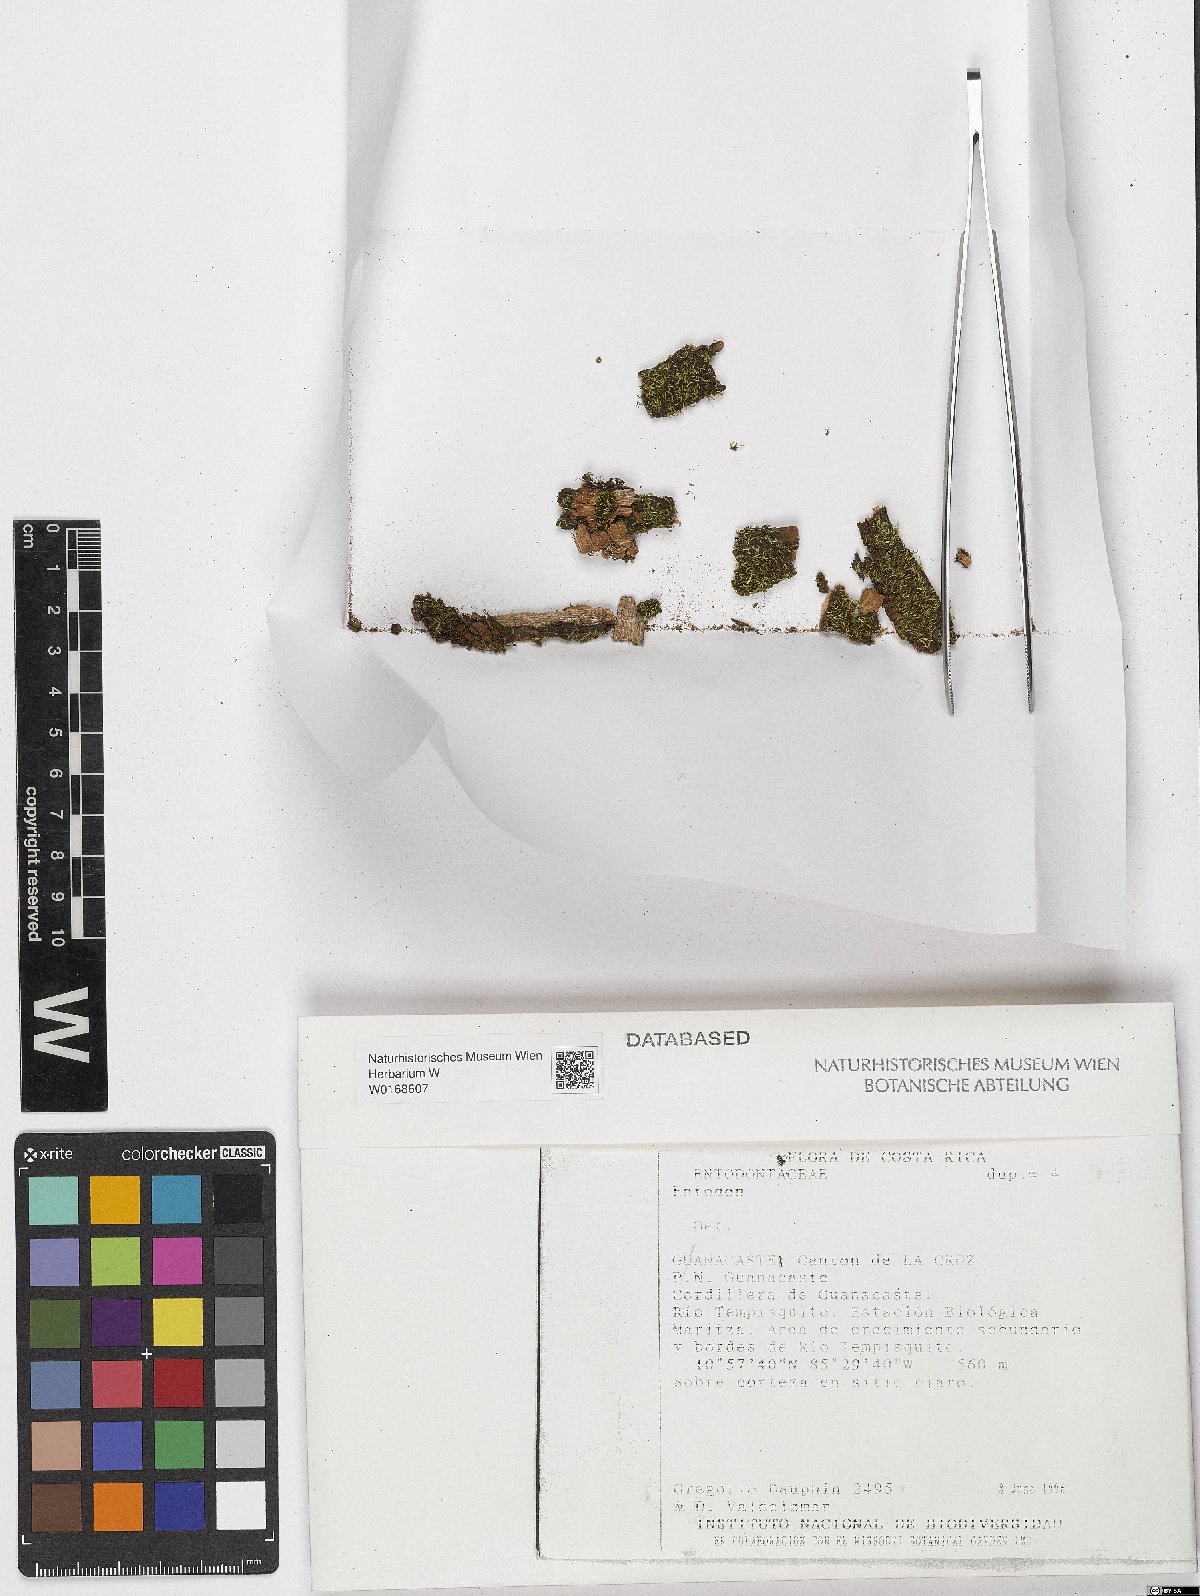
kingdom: Plantae
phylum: Bryophyta
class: Bryopsida
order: Hypnales
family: Entodontaceae
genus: Entodon
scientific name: Entodon
